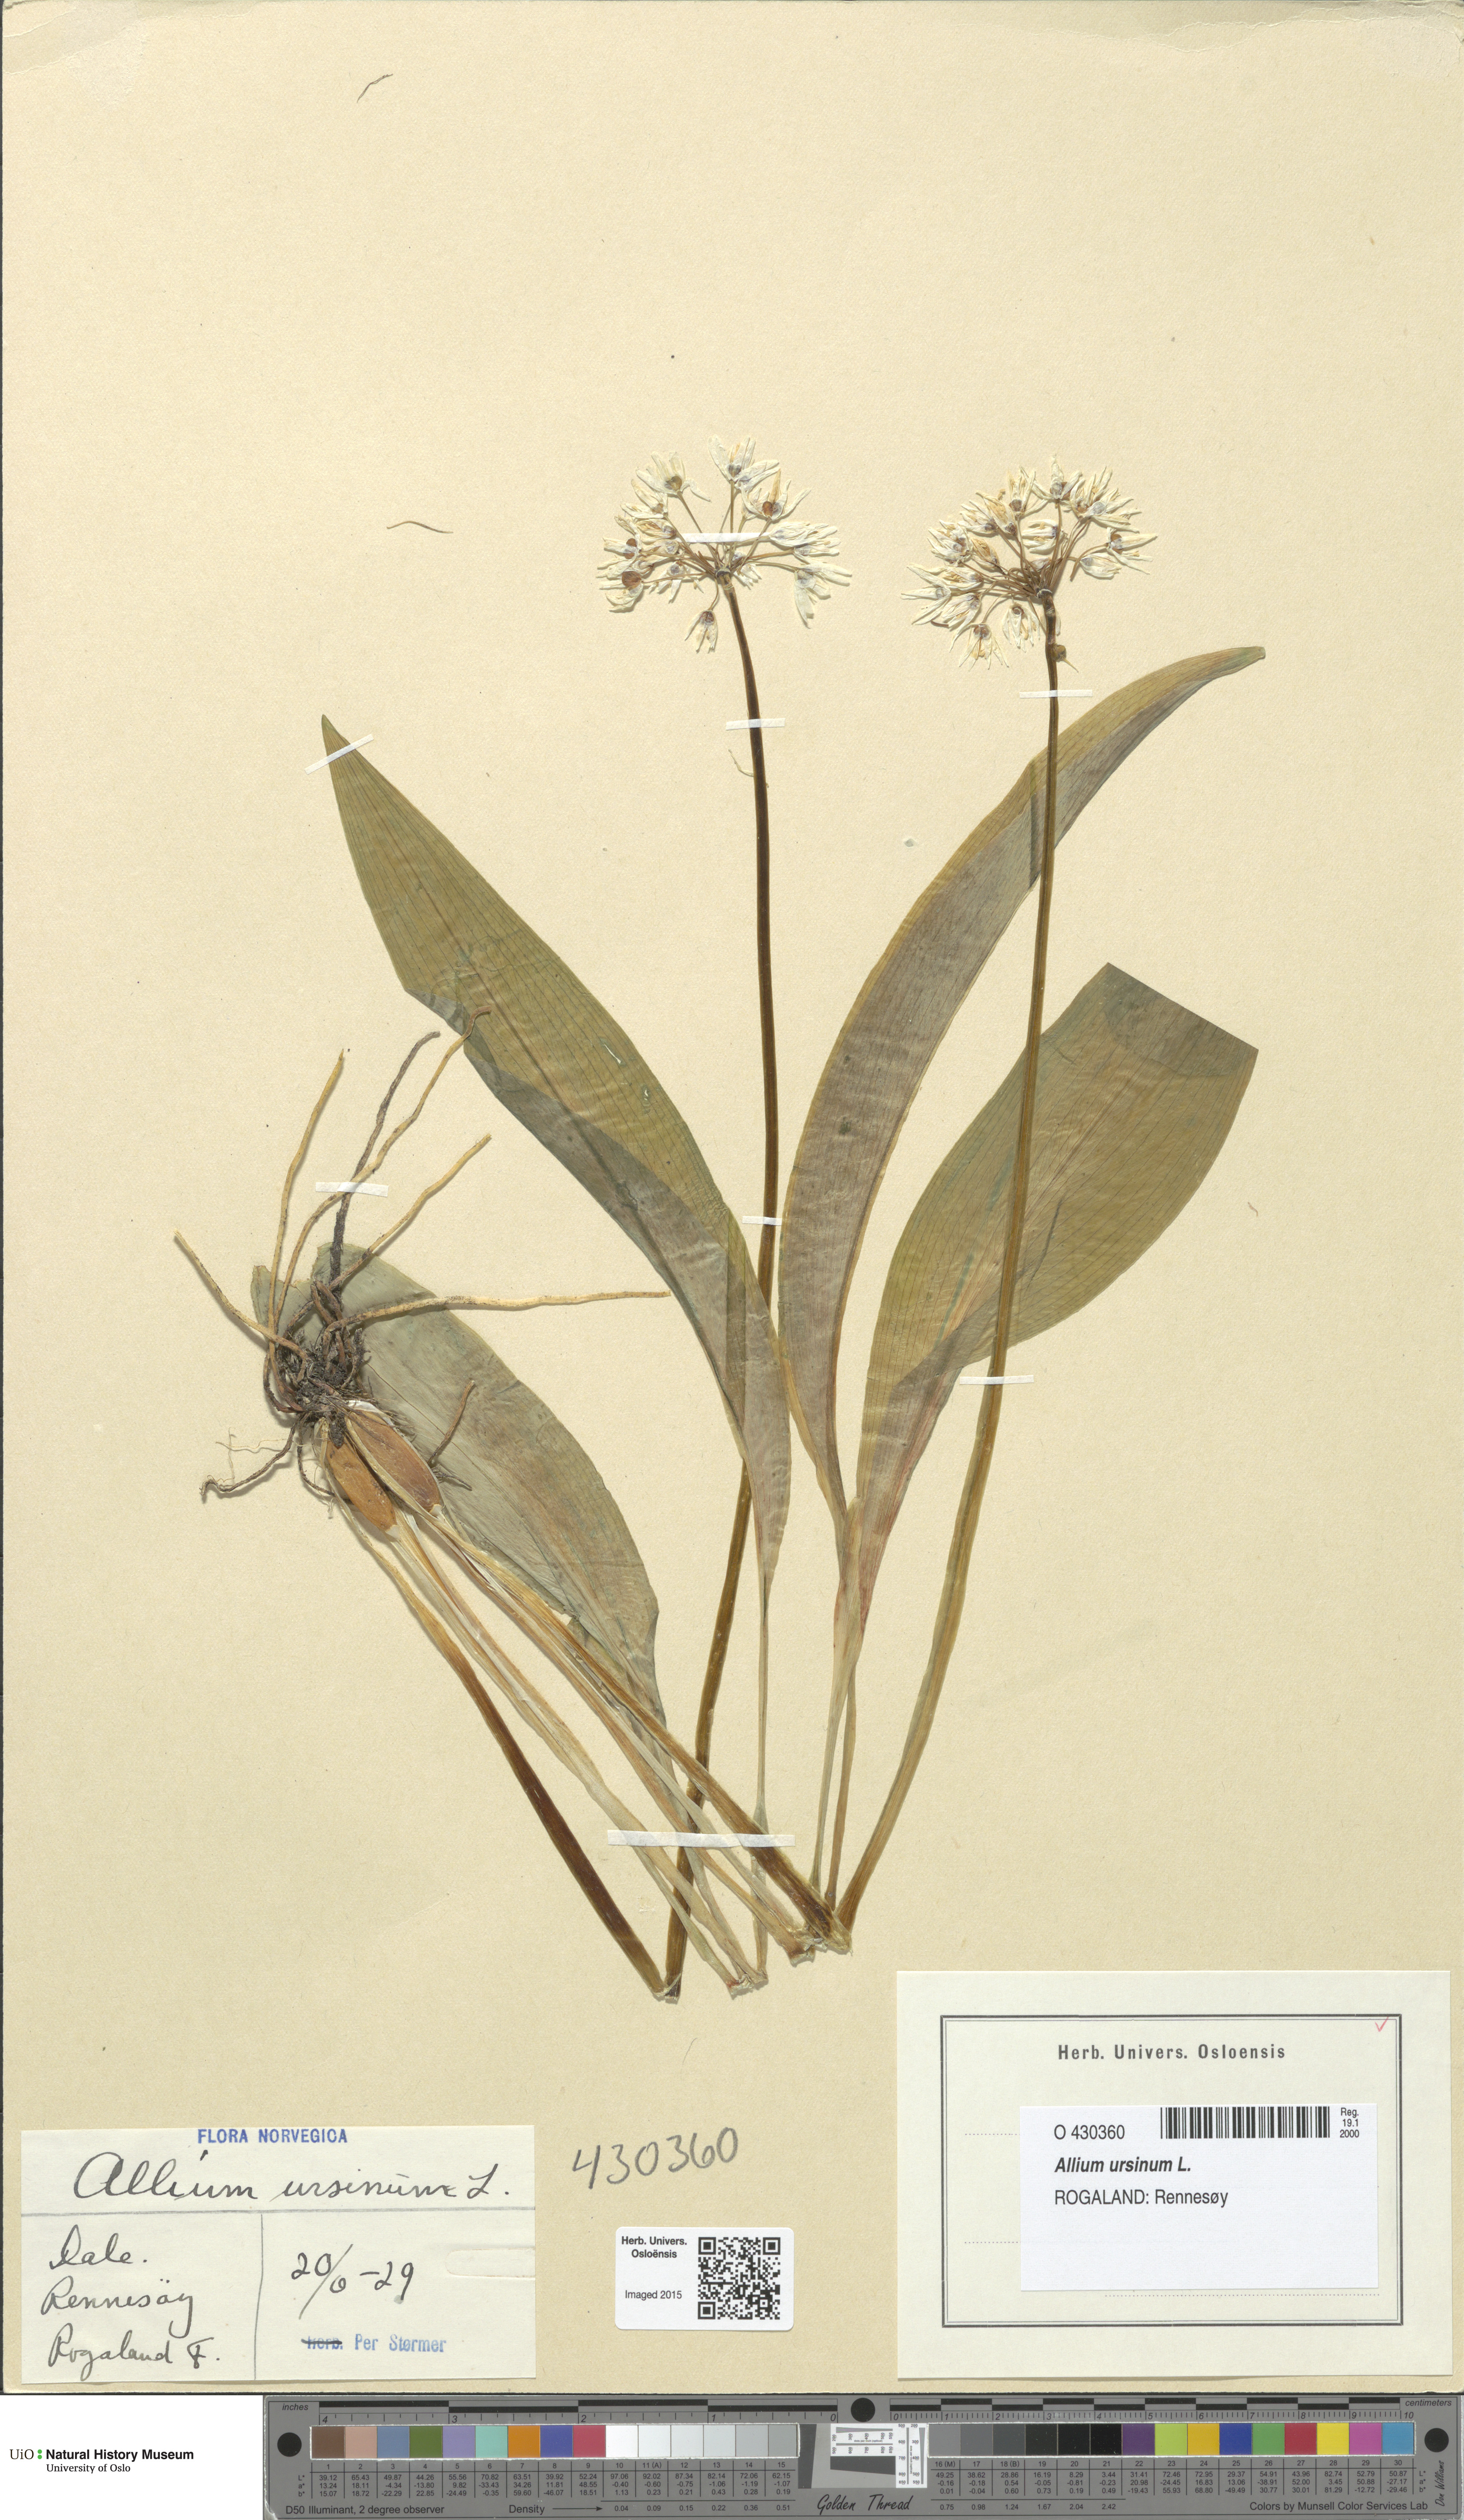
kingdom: Plantae
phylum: Tracheophyta
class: Liliopsida
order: Asparagales
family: Amaryllidaceae
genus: Allium
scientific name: Allium ursinum
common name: Ramsons
